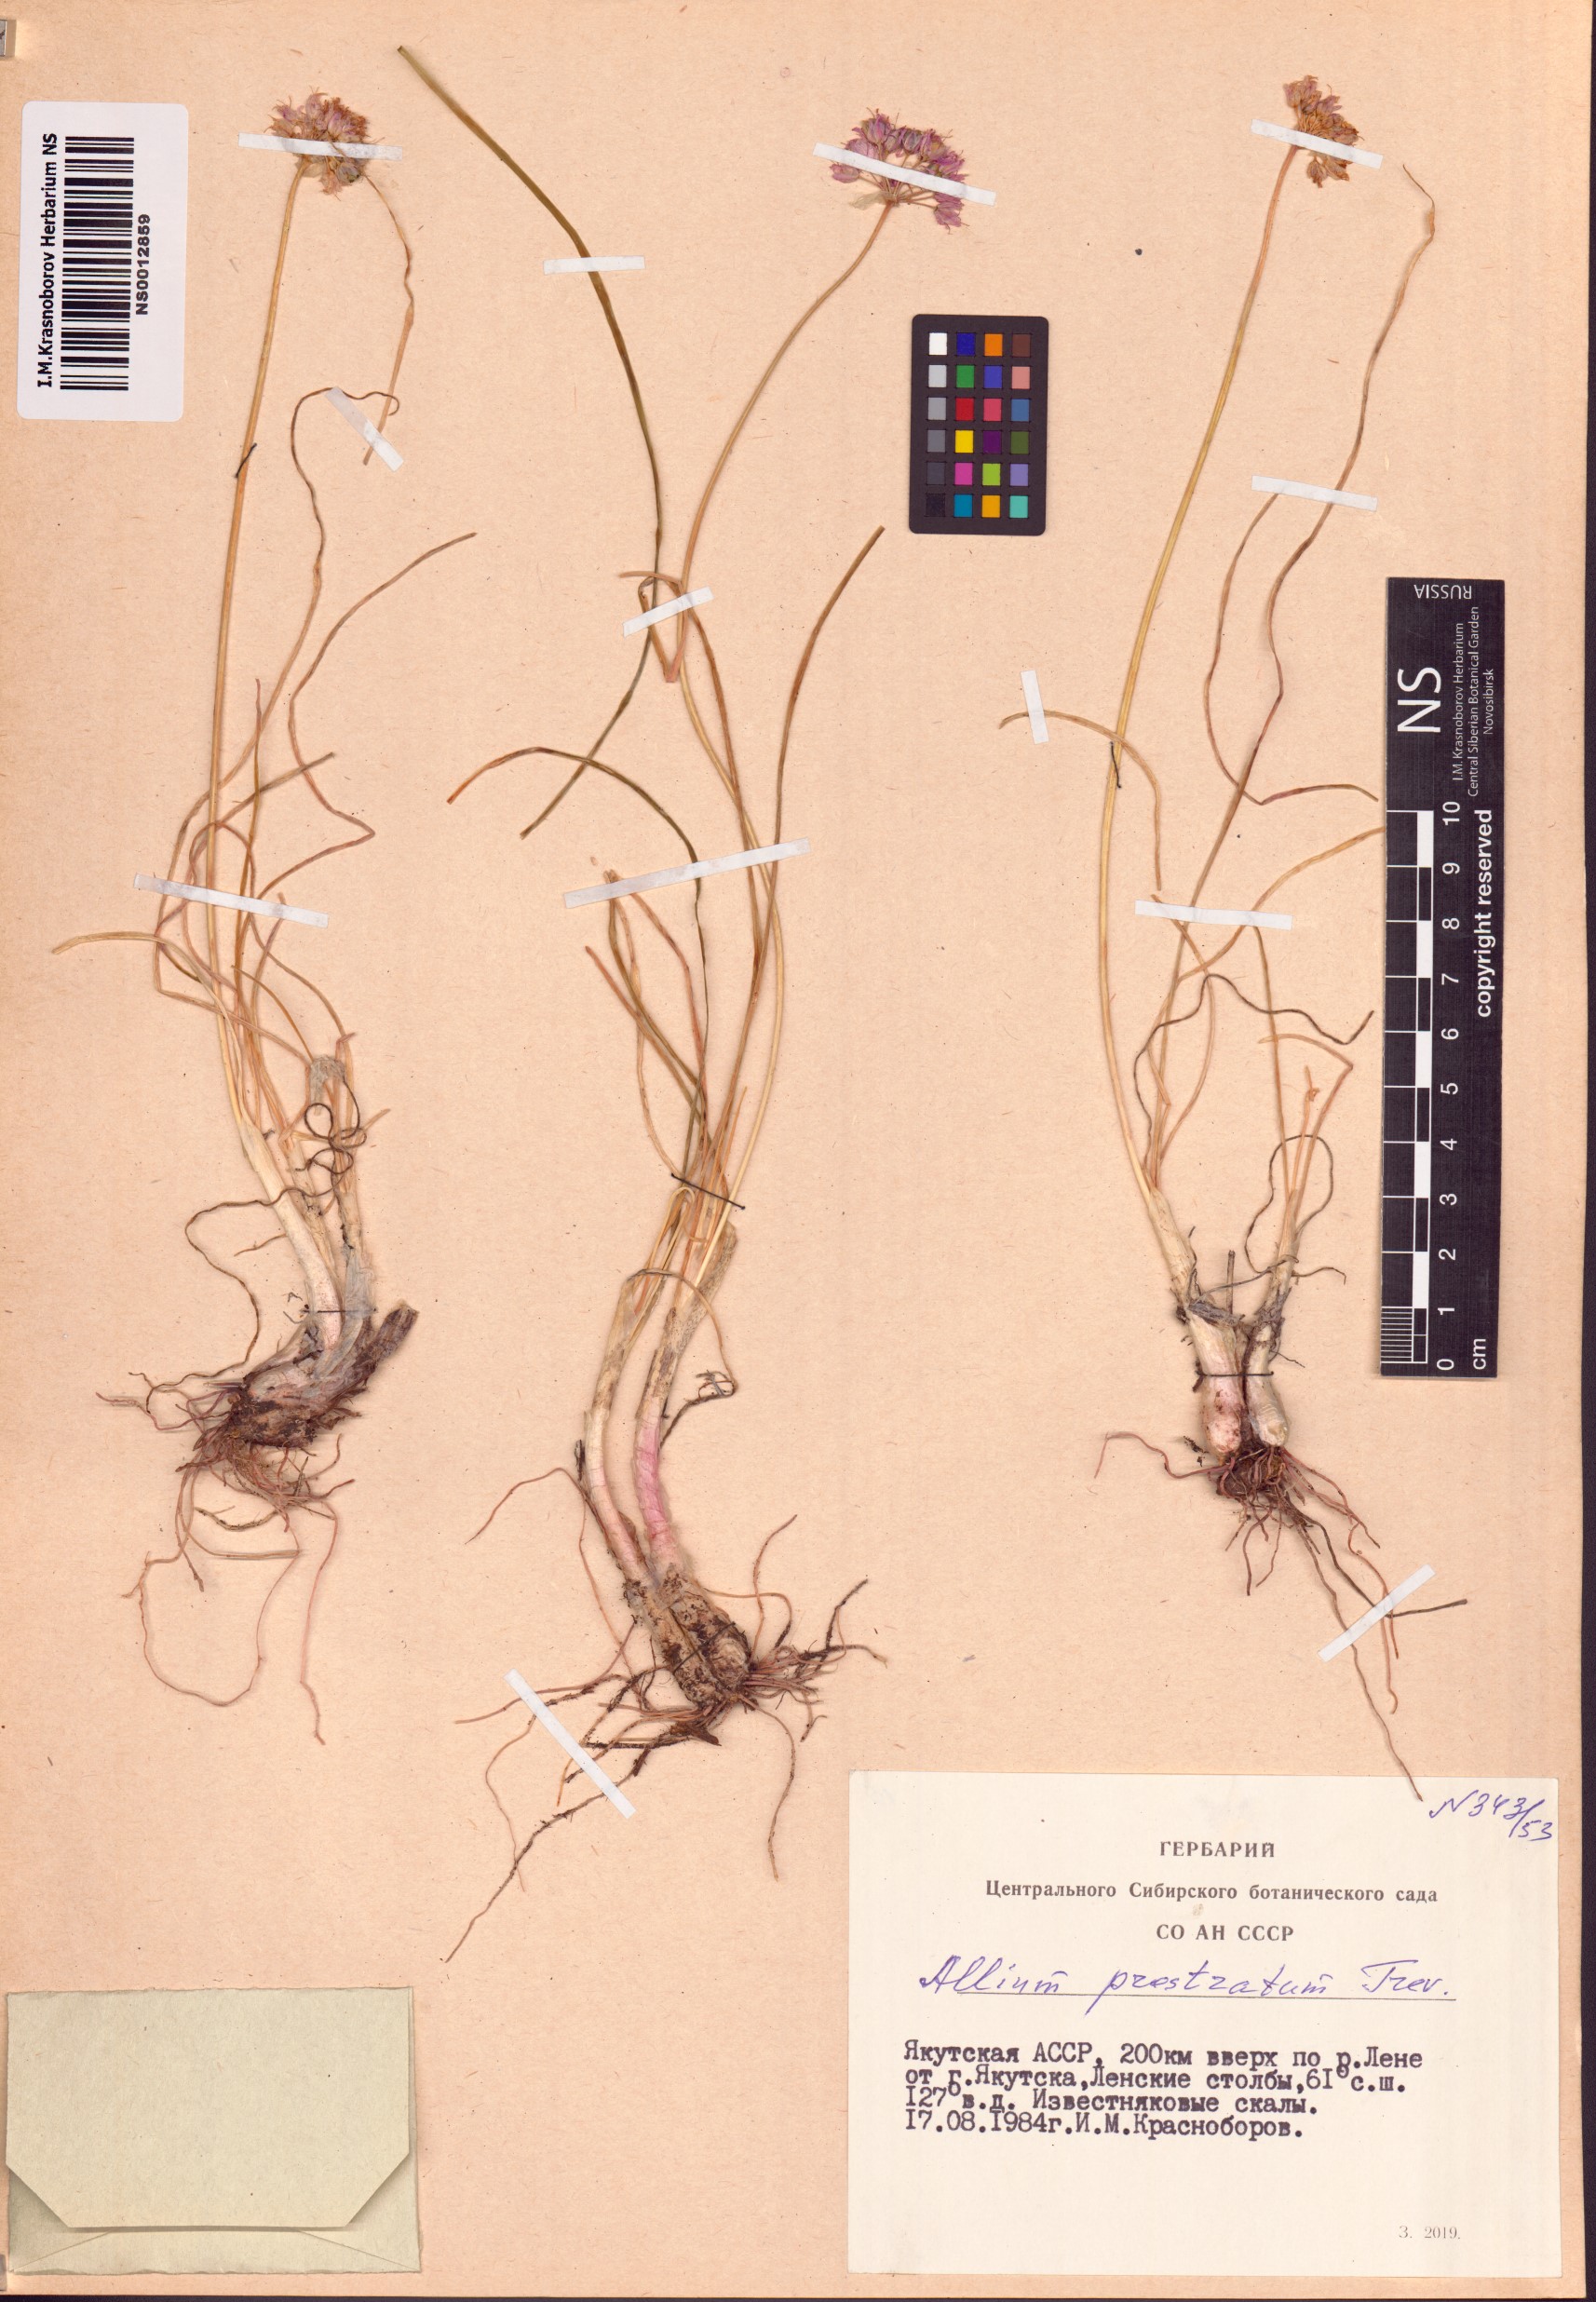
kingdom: Plantae
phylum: Tracheophyta
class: Liliopsida
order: Asparagales
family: Amaryllidaceae
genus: Allium
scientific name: Allium prostratum
